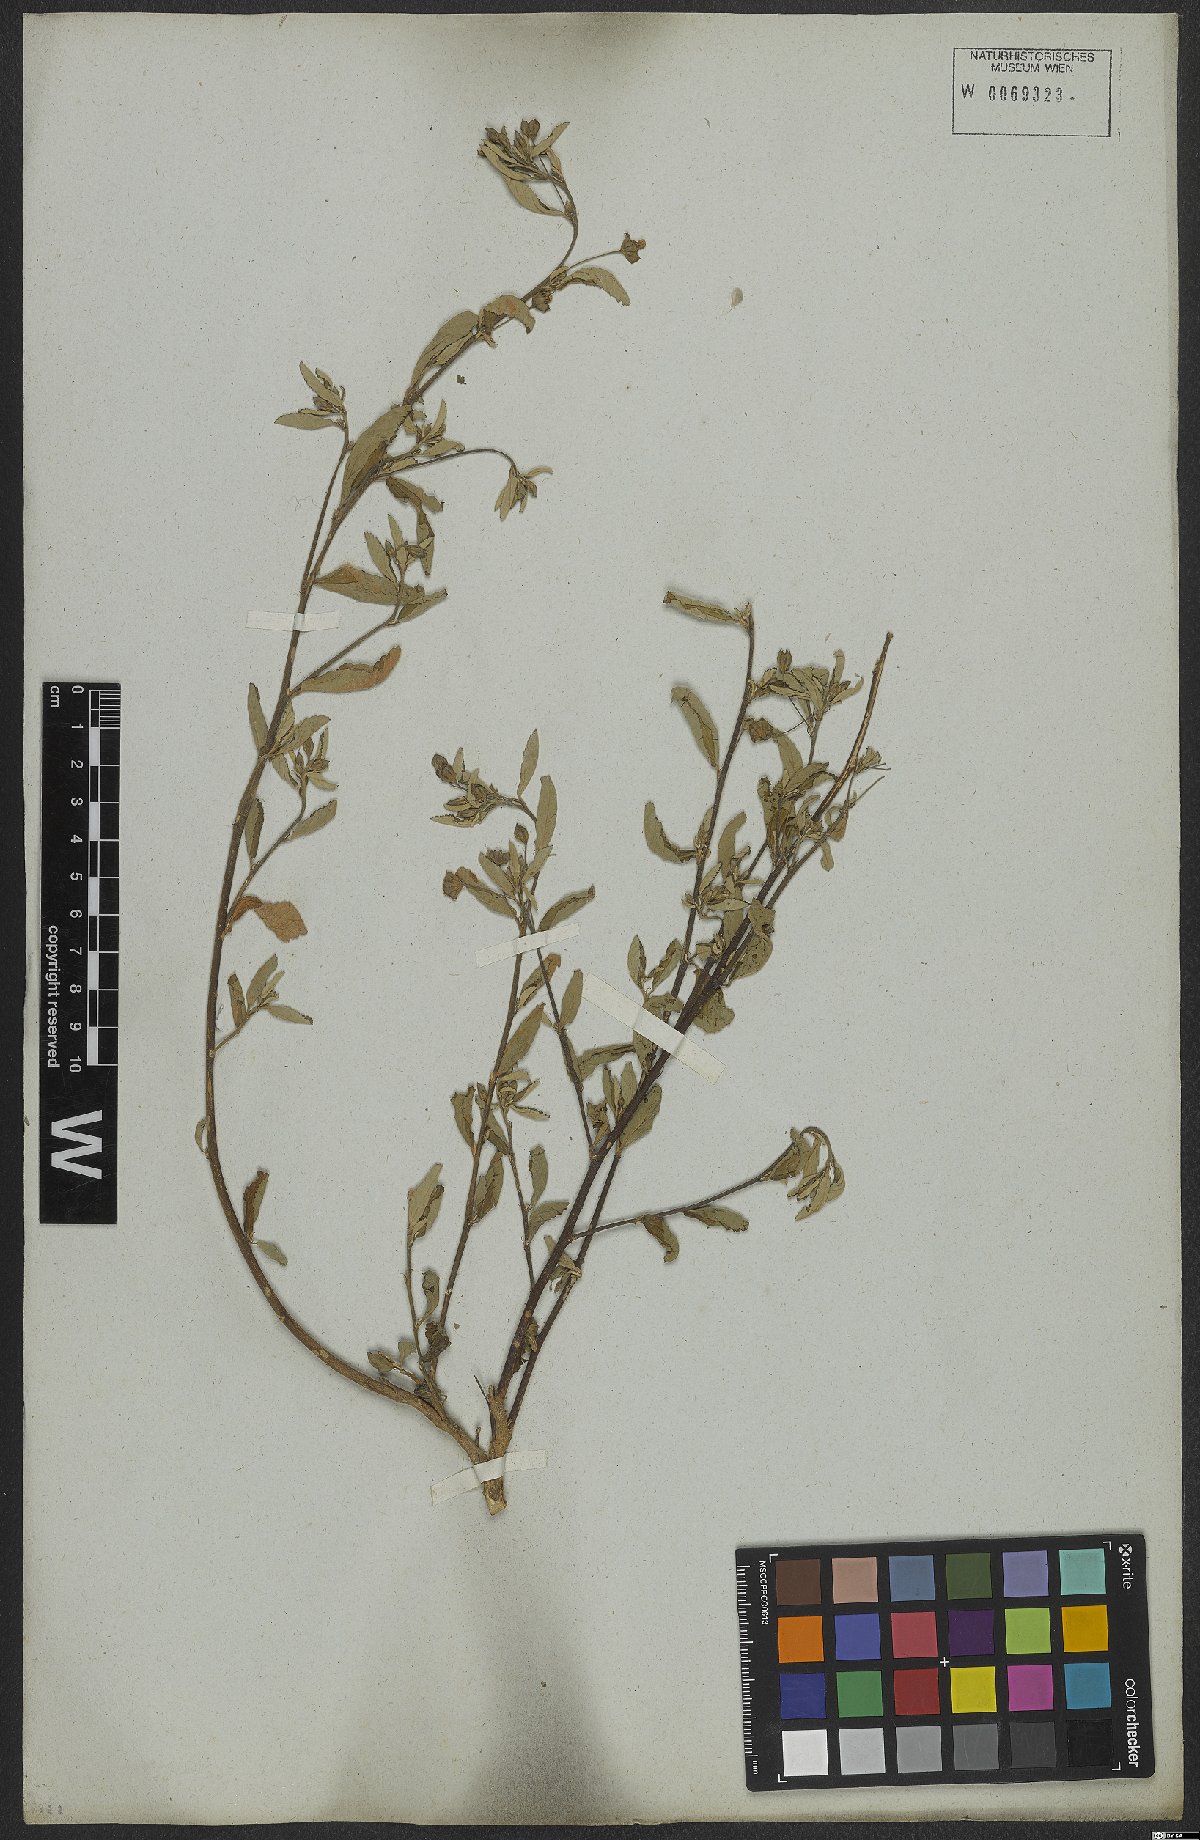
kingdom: Plantae
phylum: Tracheophyta
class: Magnoliopsida
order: Malvales
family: Malvaceae
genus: Sida
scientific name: Sida rhombifolia
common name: Queensland-hemp
